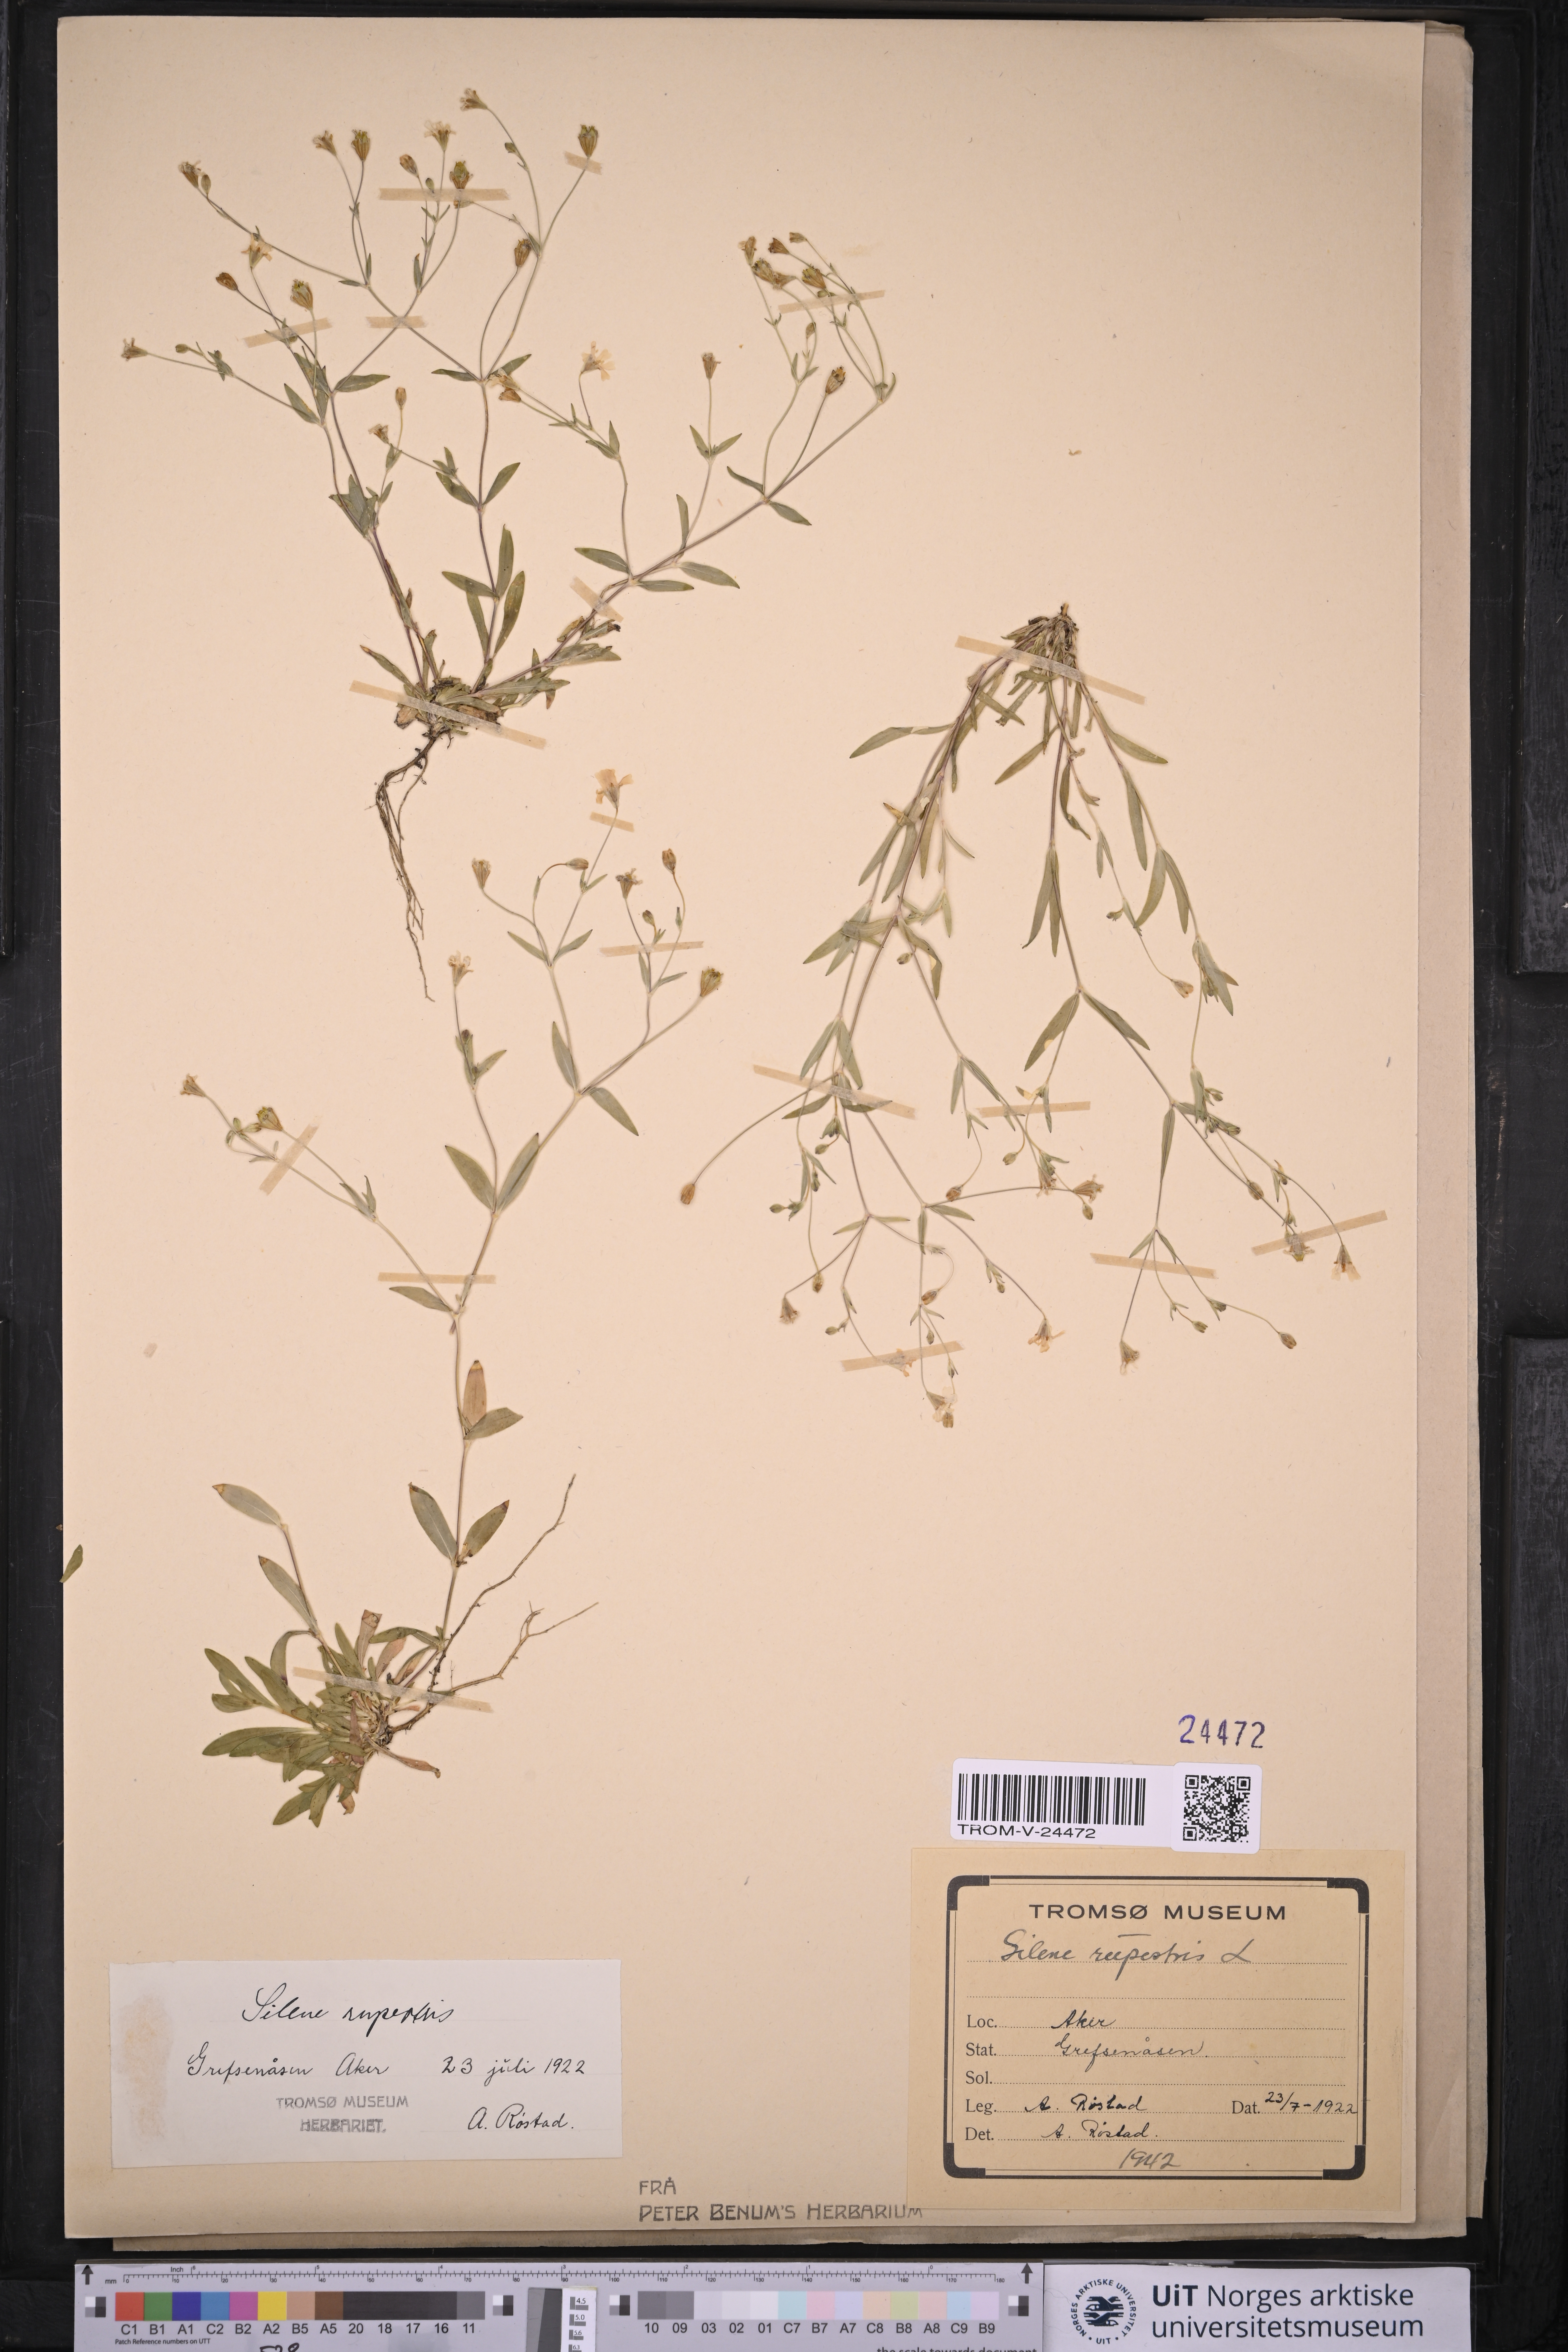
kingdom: Plantae
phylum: Tracheophyta
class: Magnoliopsida
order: Caryophyllales
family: Caryophyllaceae
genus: Atocion
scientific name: Atocion rupestre
